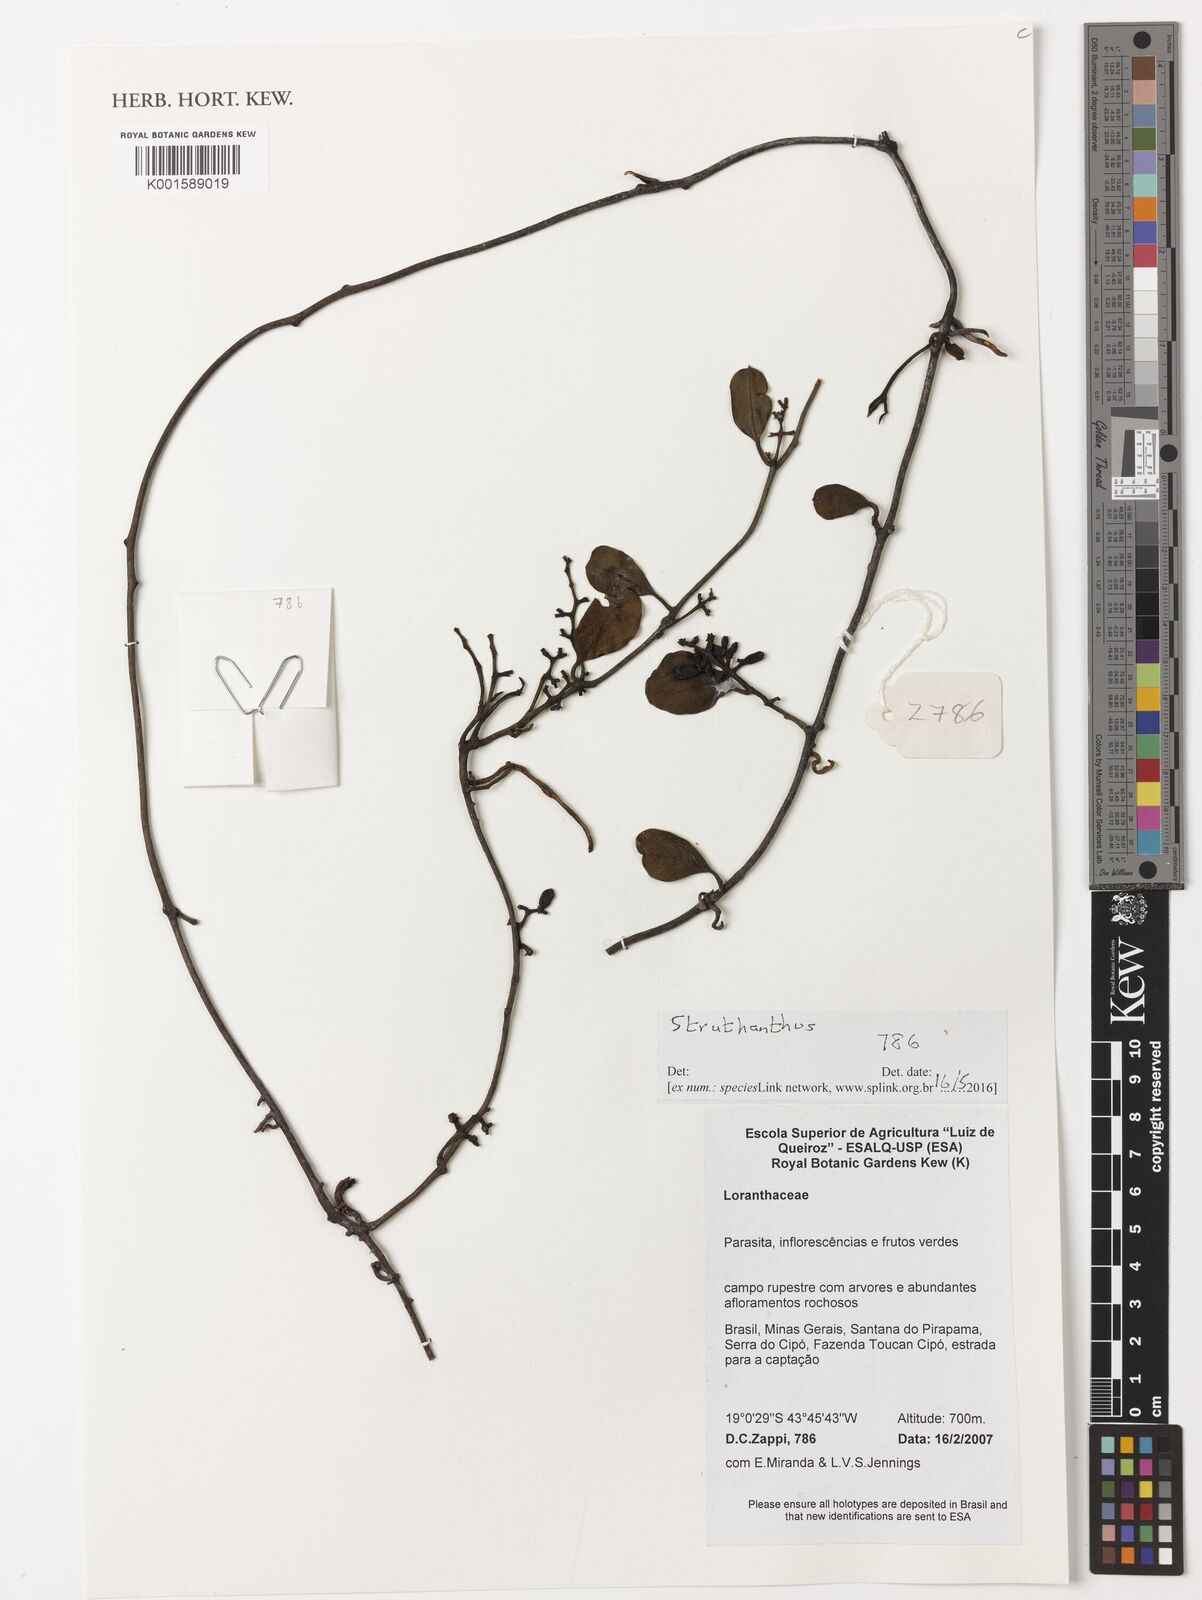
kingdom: Plantae
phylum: Tracheophyta
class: Magnoliopsida
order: Santalales
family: Loranthaceae
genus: Struthanthus
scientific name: Struthanthus
